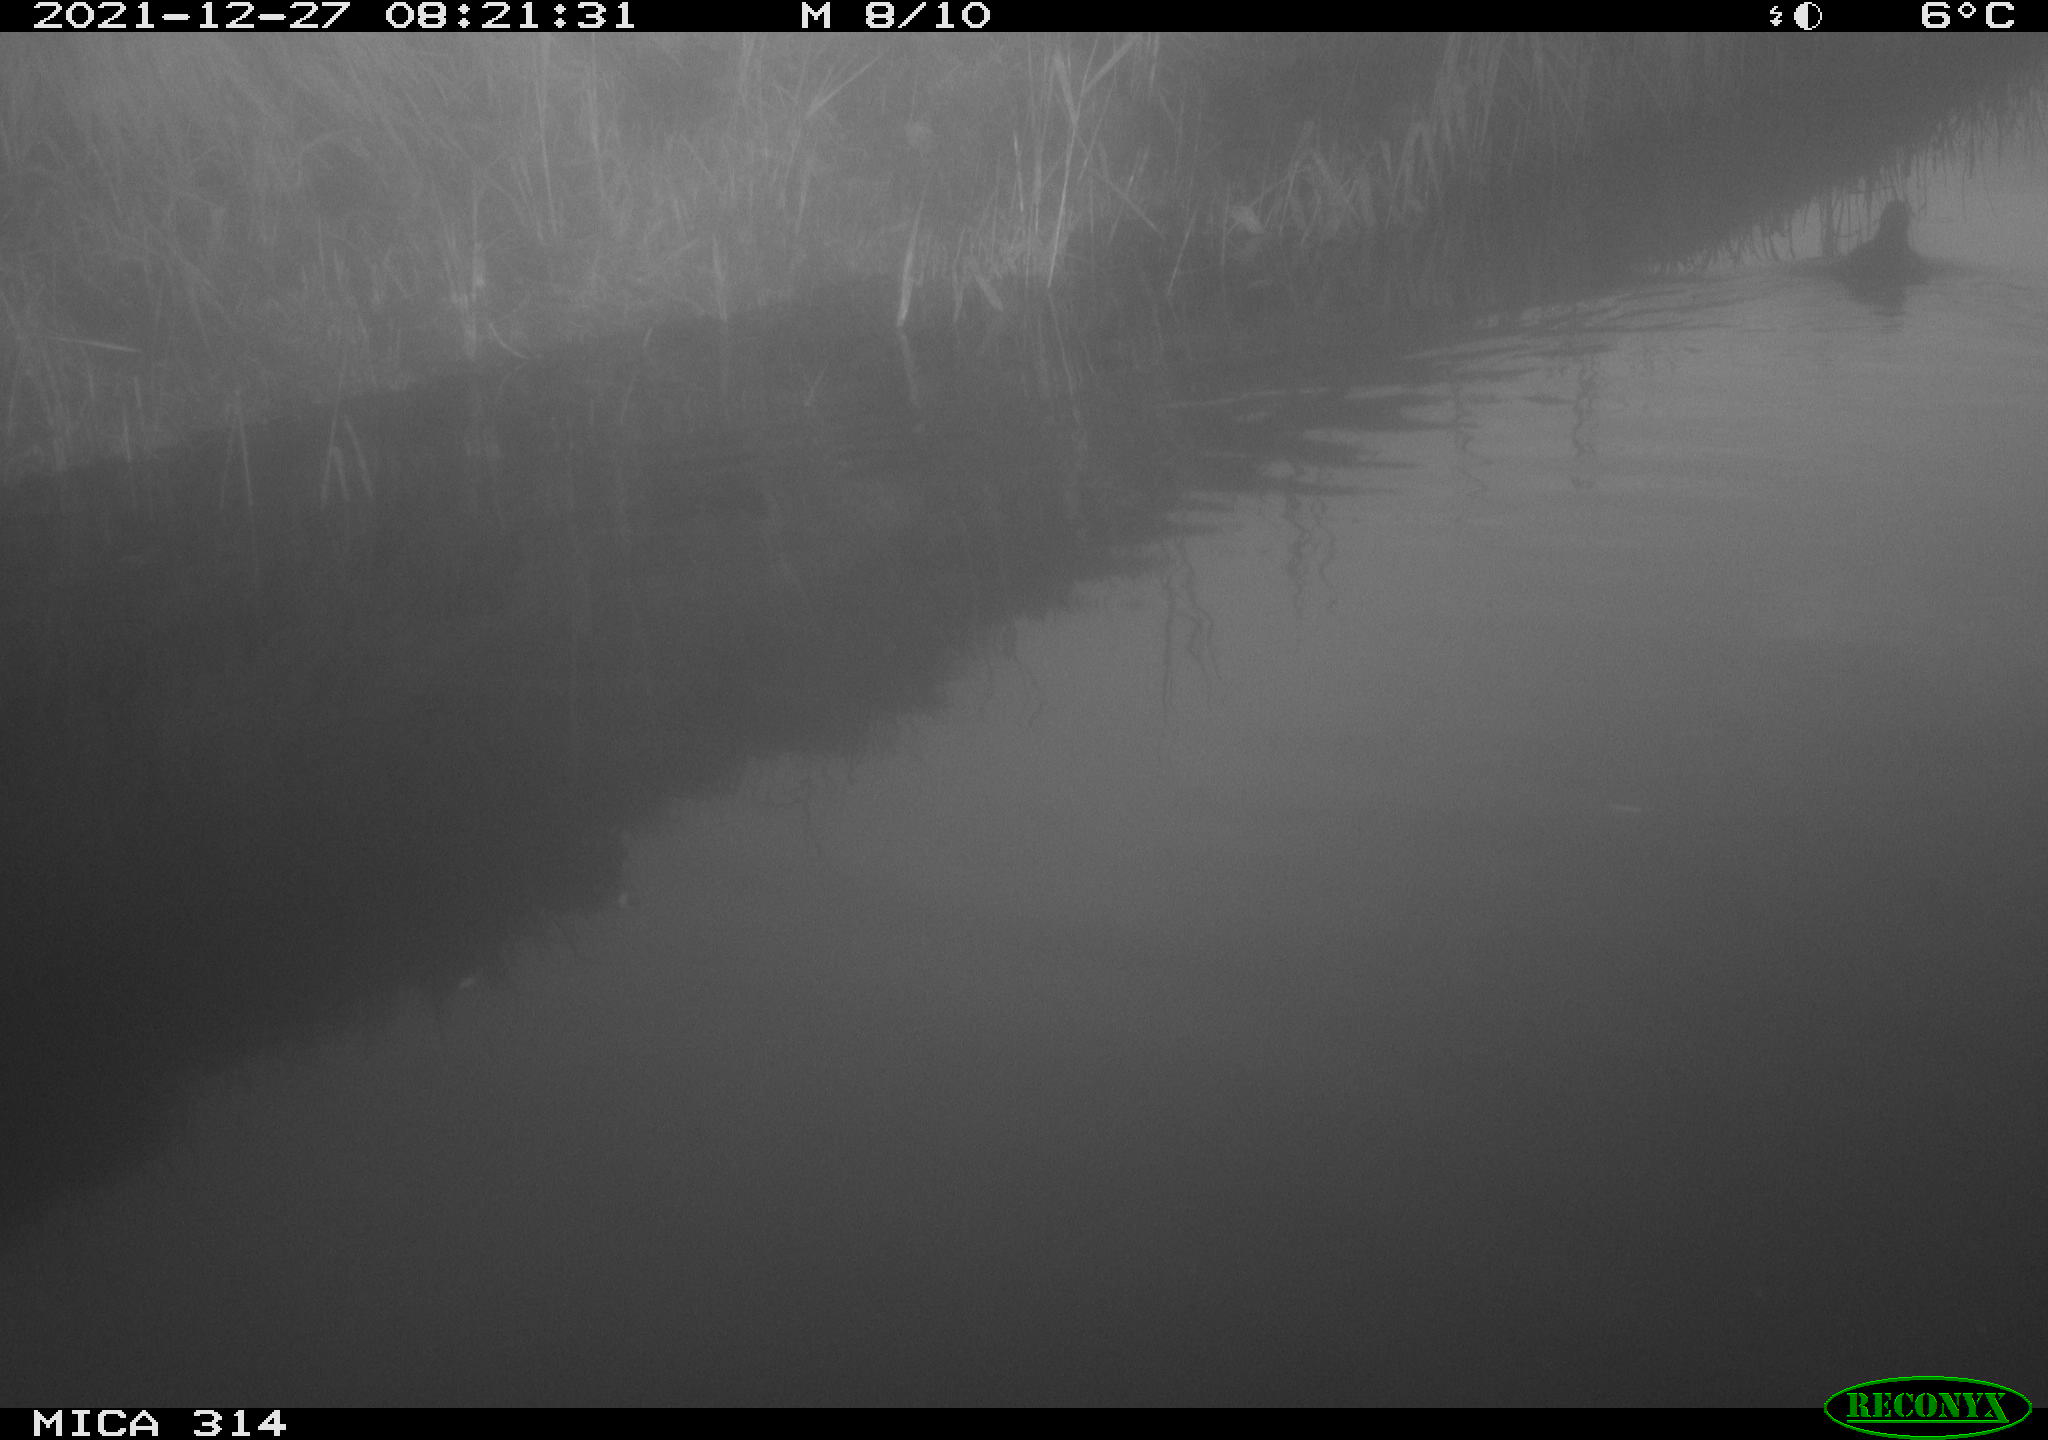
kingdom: Animalia
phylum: Chordata
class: Aves
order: Gruiformes
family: Rallidae
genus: Gallinula
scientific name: Gallinula chloropus
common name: Common moorhen
